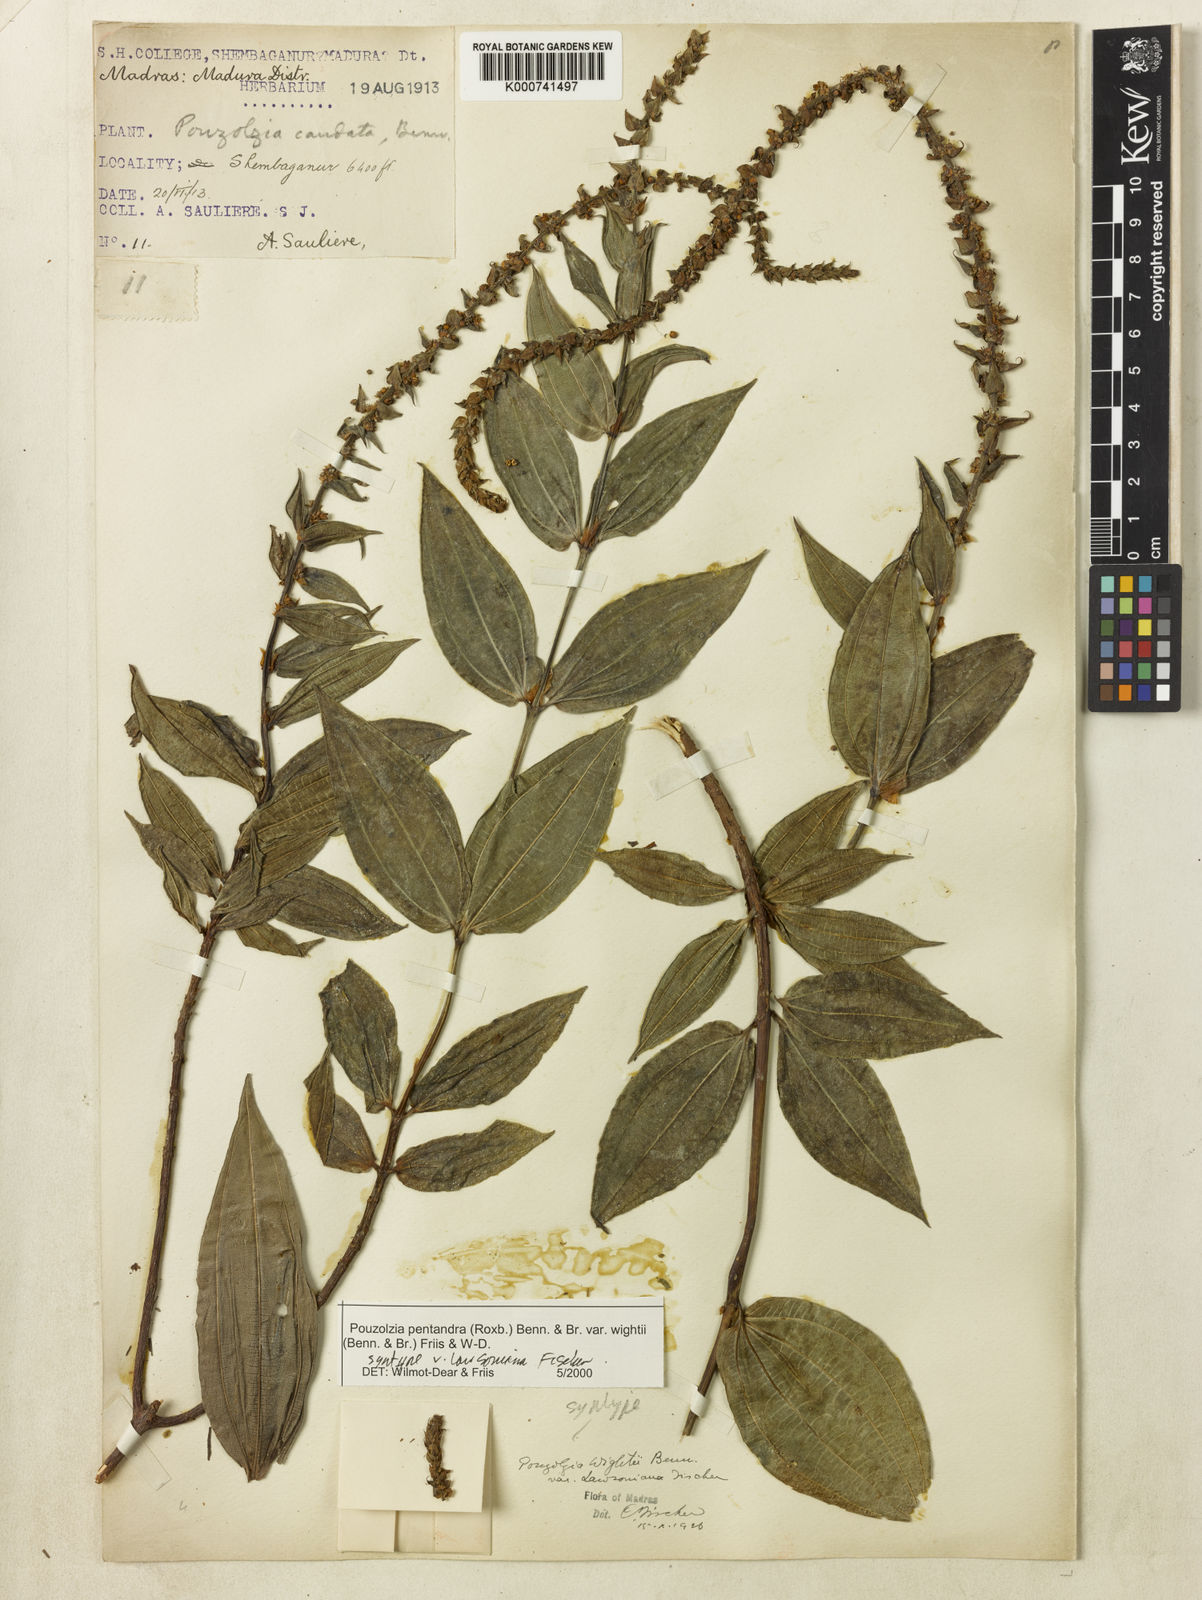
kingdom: Plantae
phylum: Tracheophyta
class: Magnoliopsida
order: Rosales
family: Urticaceae
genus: Gonostegia
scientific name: Gonostegia pentandra
